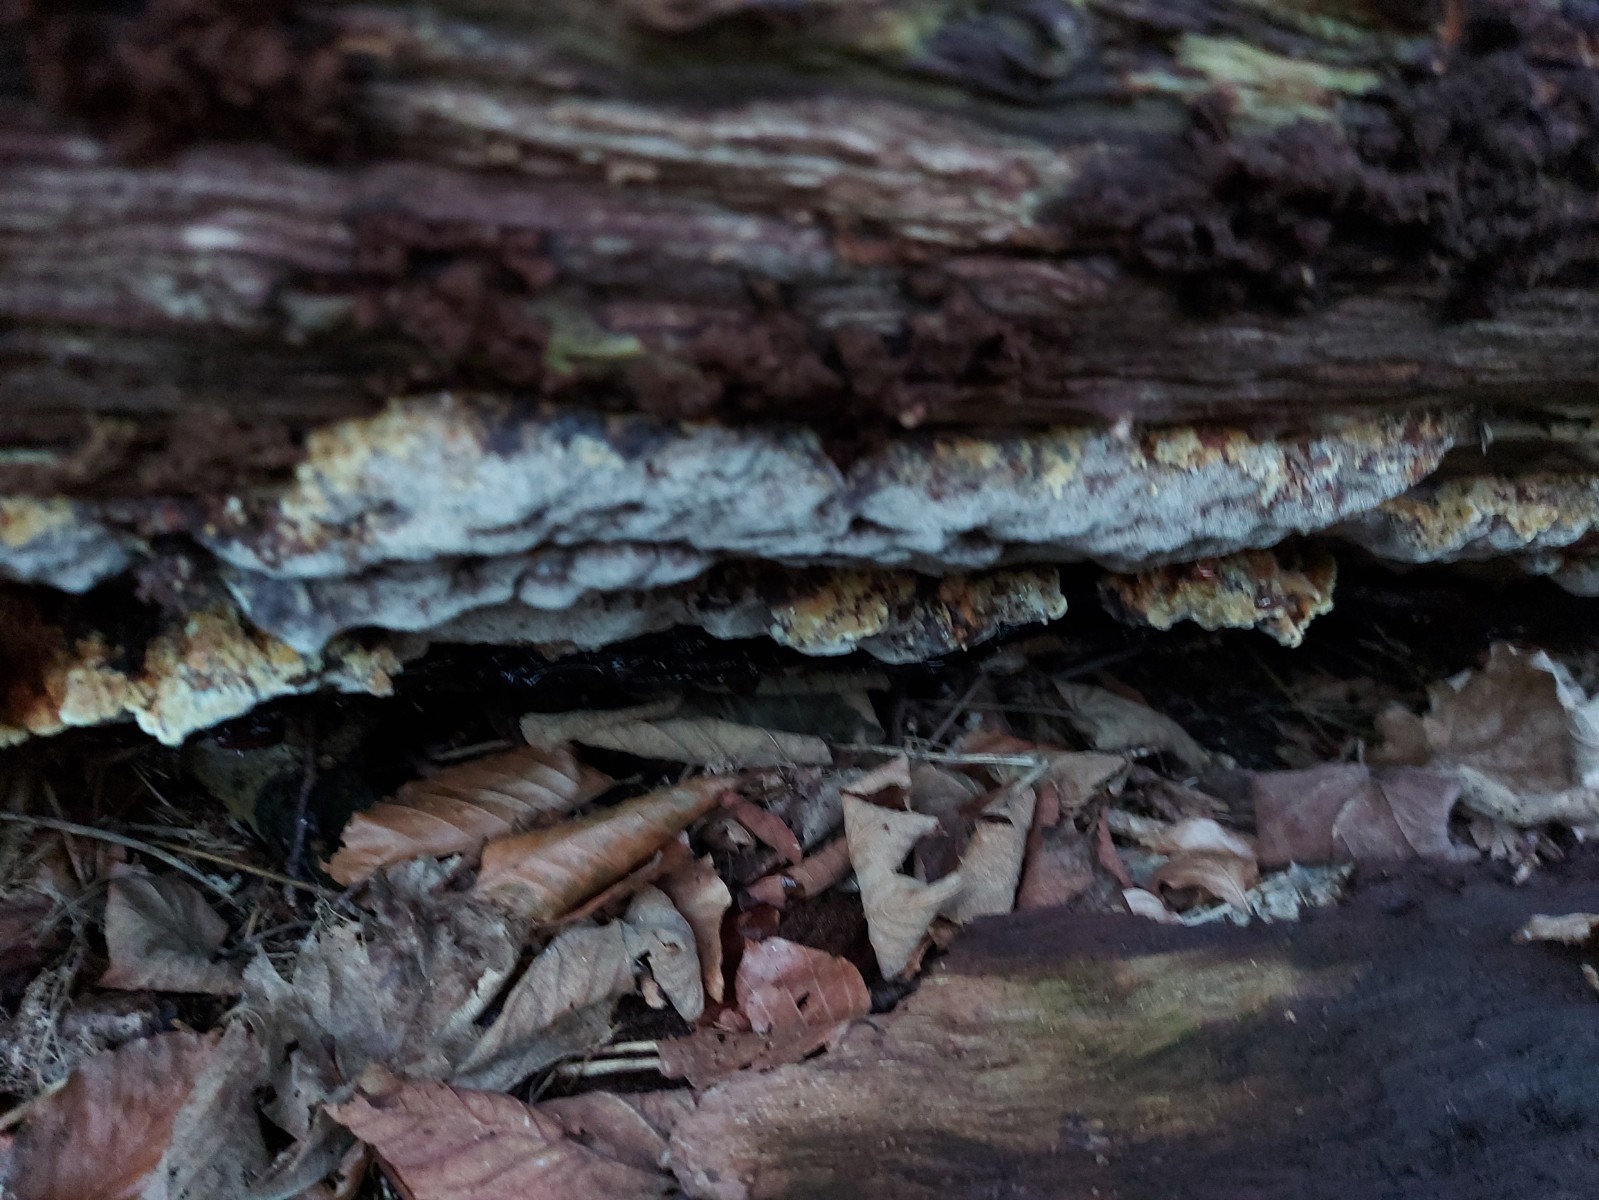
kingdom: Fungi
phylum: Basidiomycota
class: Agaricomycetes
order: Polyporales
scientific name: Polyporales
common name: poresvampordenen
